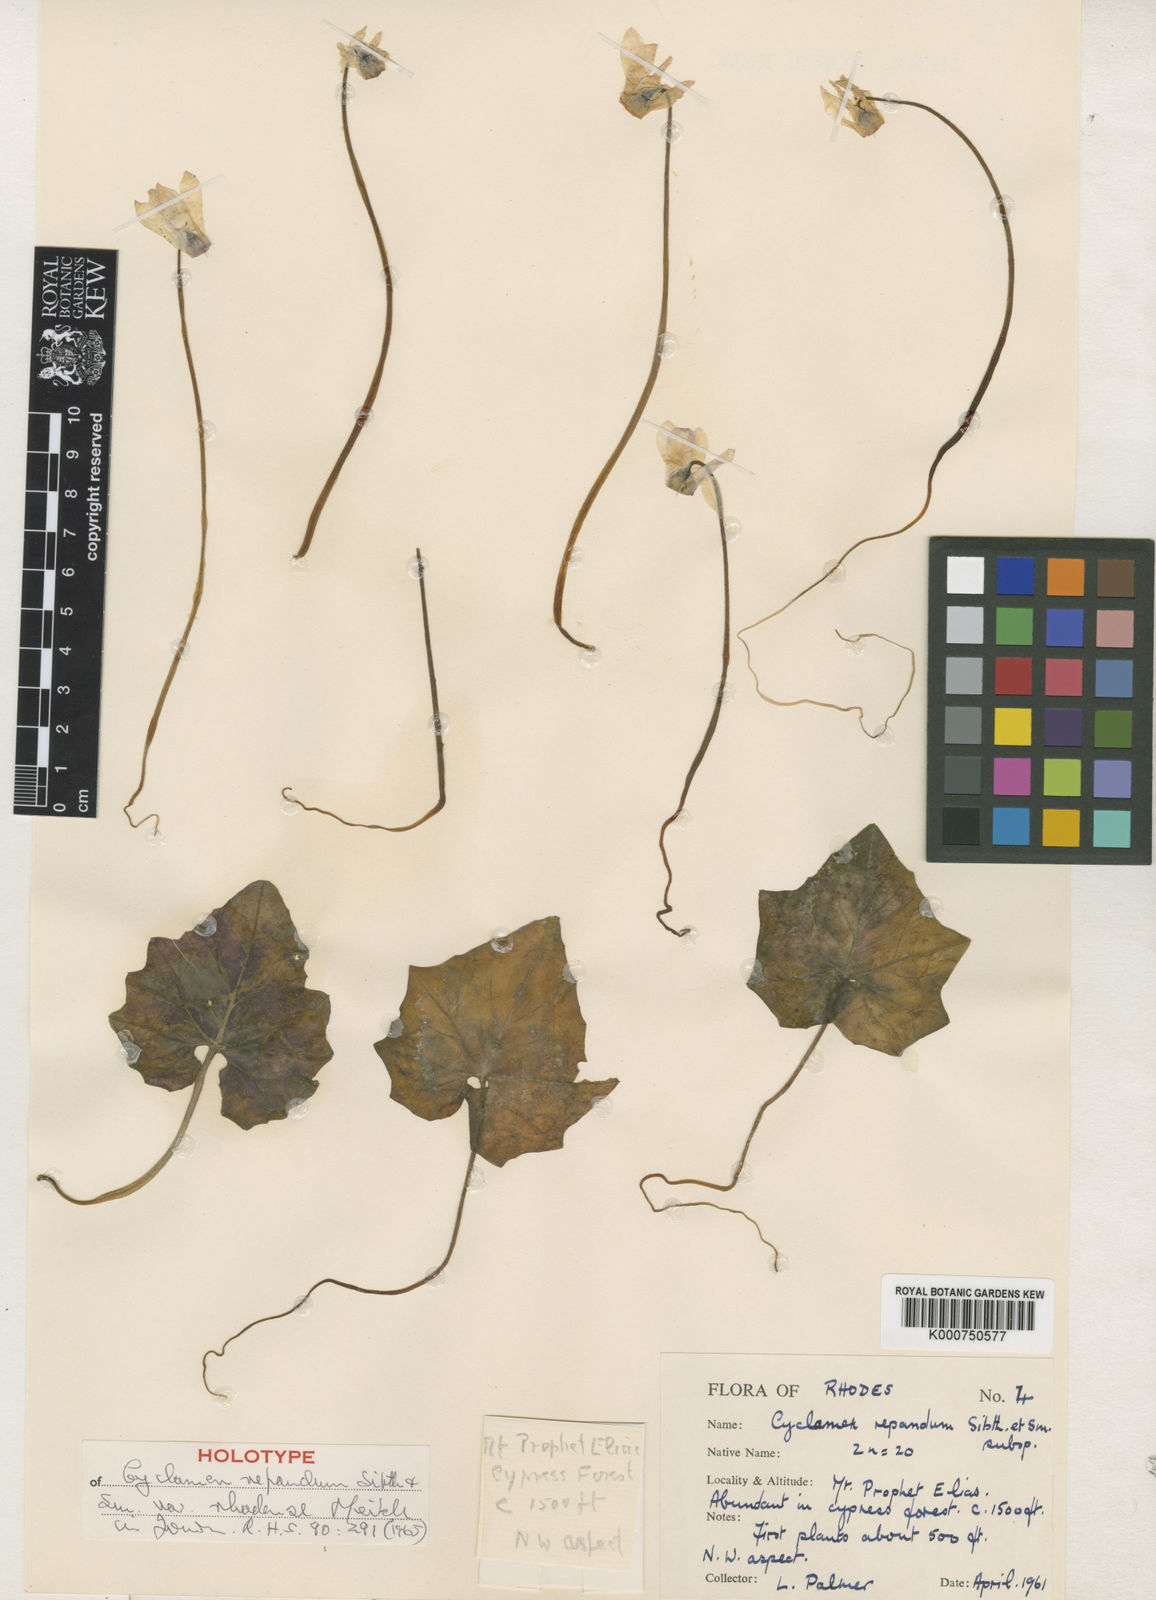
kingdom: Plantae
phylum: Tracheophyta
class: Magnoliopsida
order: Ericales
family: Primulaceae
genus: Cyclamen
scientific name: Cyclamen repandum
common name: Spring sowbread
